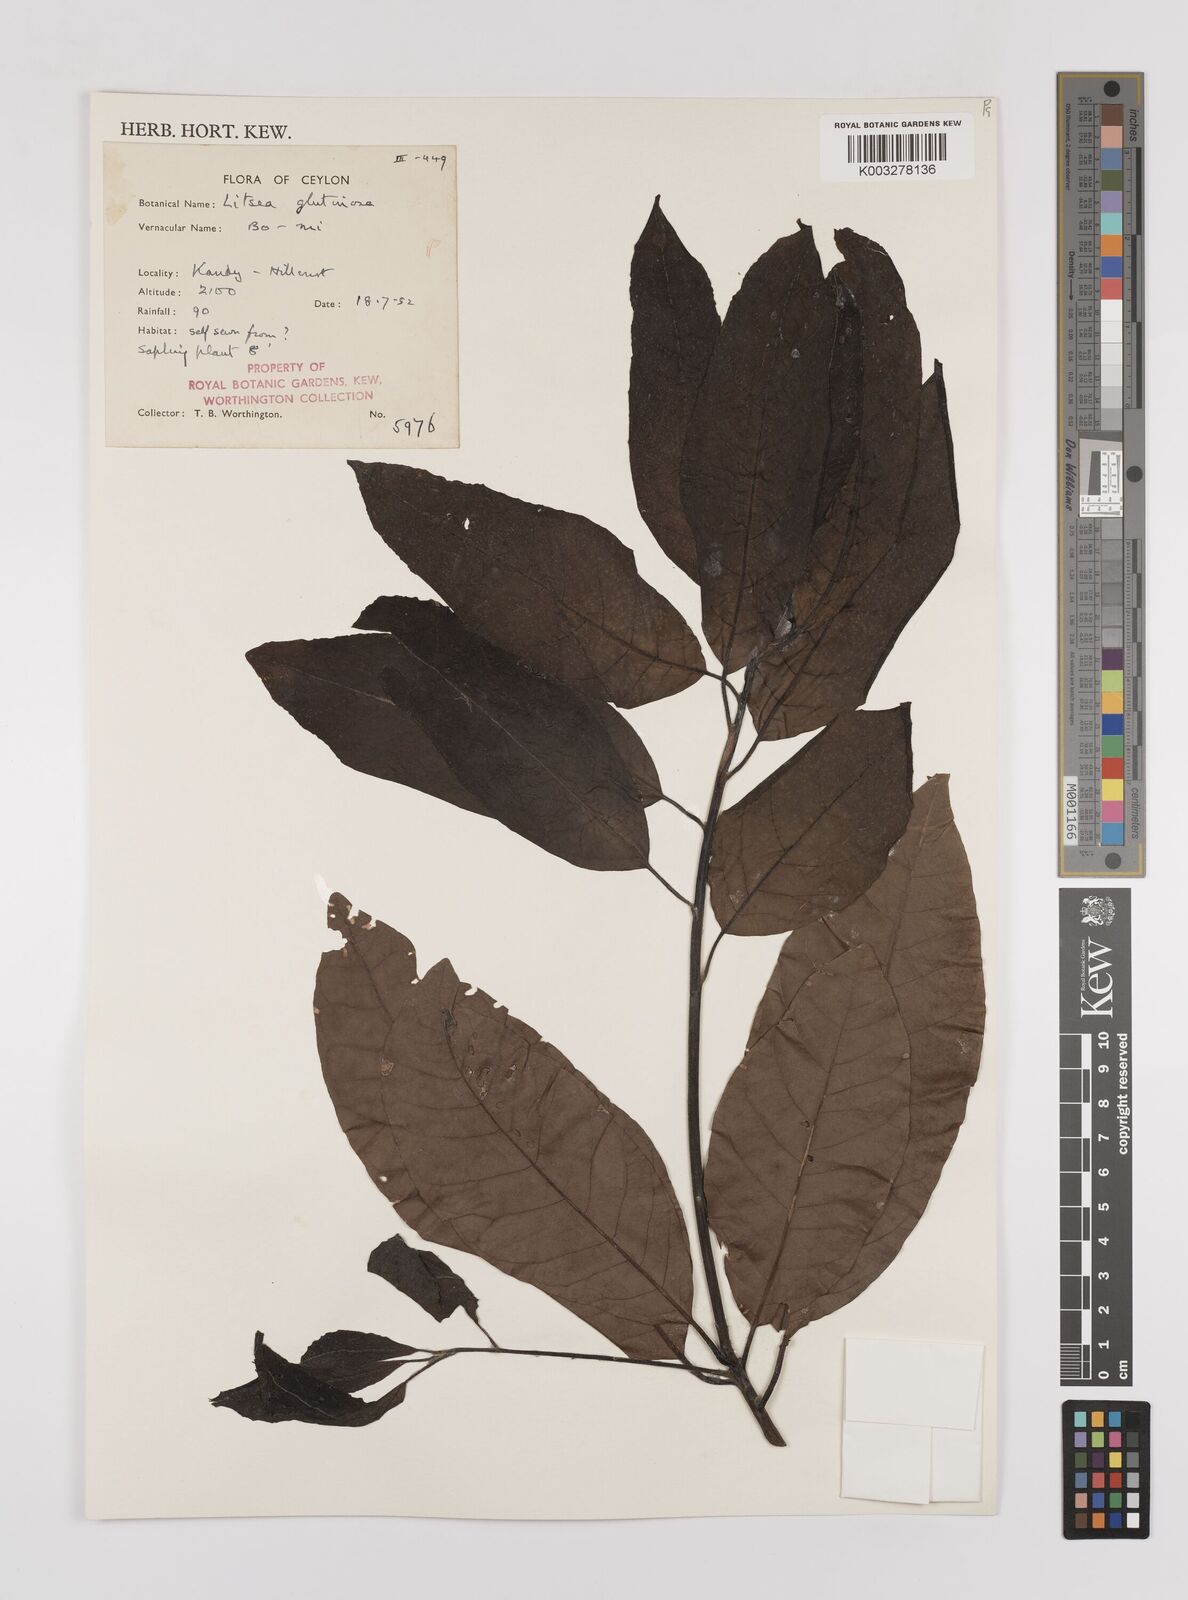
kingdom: Plantae
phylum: Tracheophyta
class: Magnoliopsida
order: Laurales
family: Lauraceae
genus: Litsea
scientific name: Litsea
